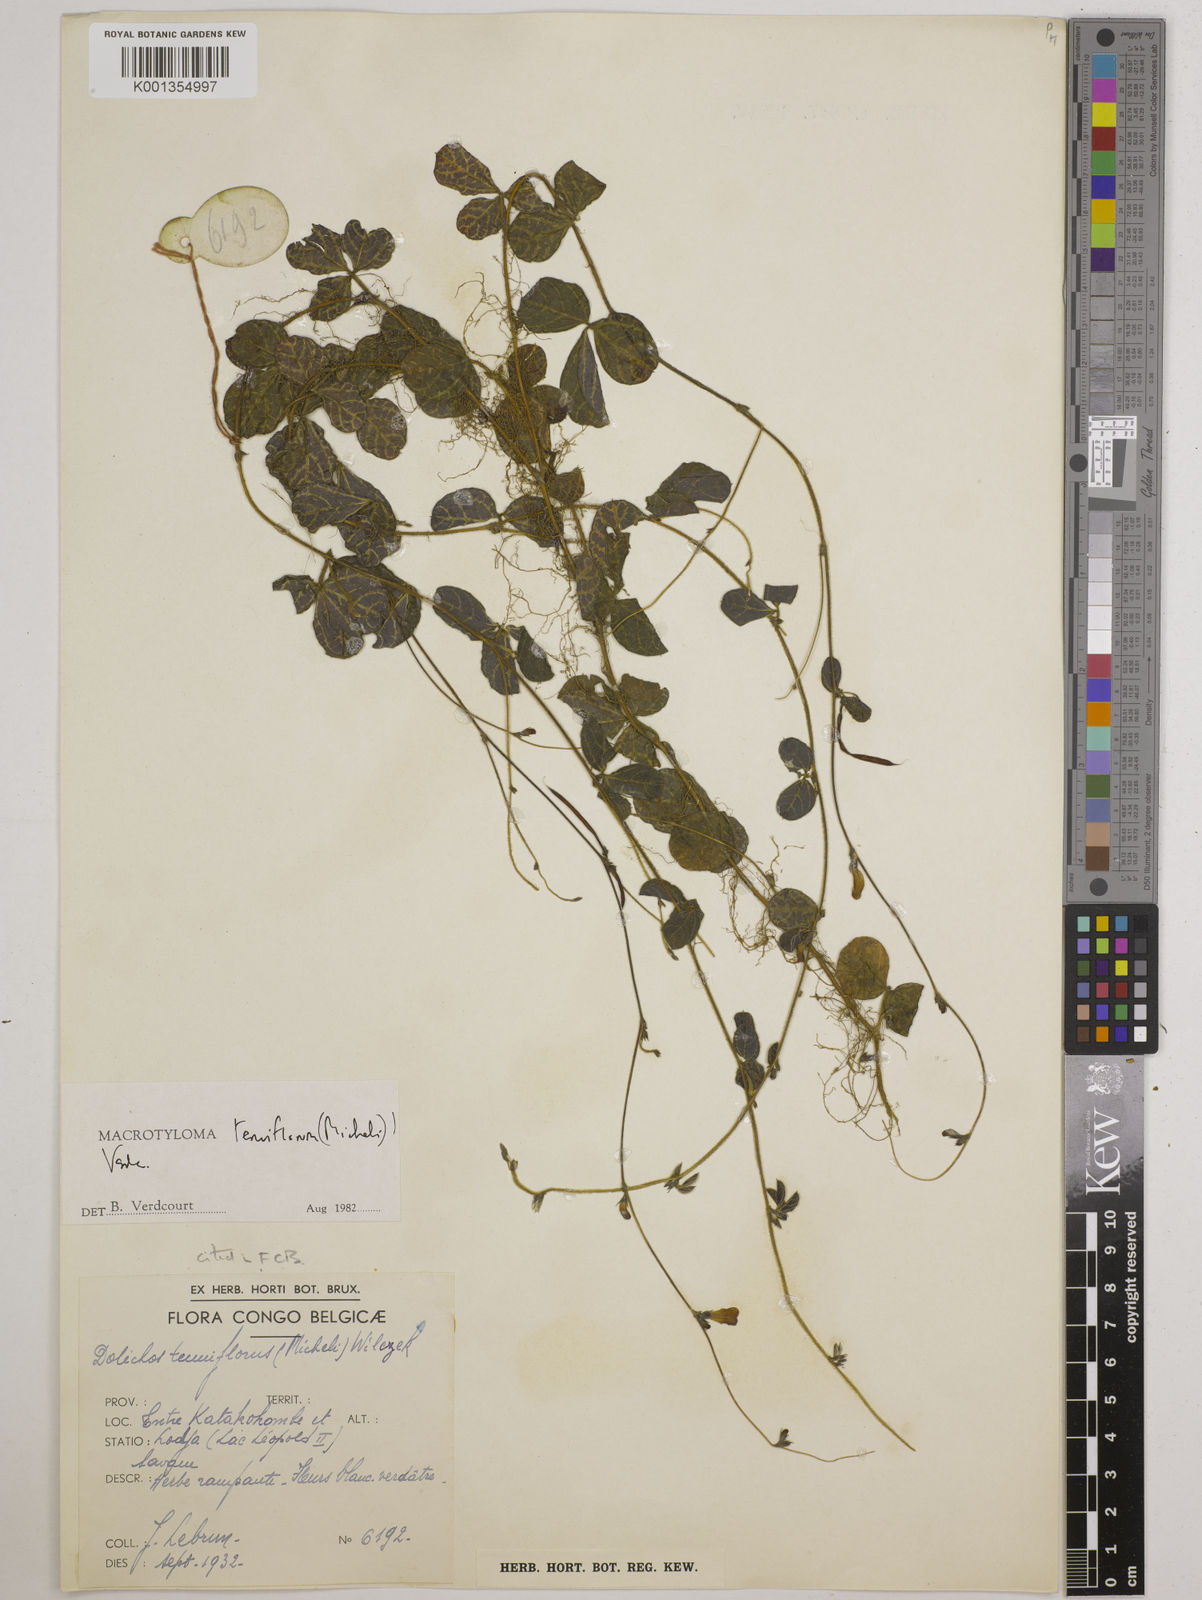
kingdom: Plantae
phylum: Tracheophyta
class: Magnoliopsida
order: Fabales
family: Fabaceae
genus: Macrotyloma
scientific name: Macrotyloma tenuiflorum
